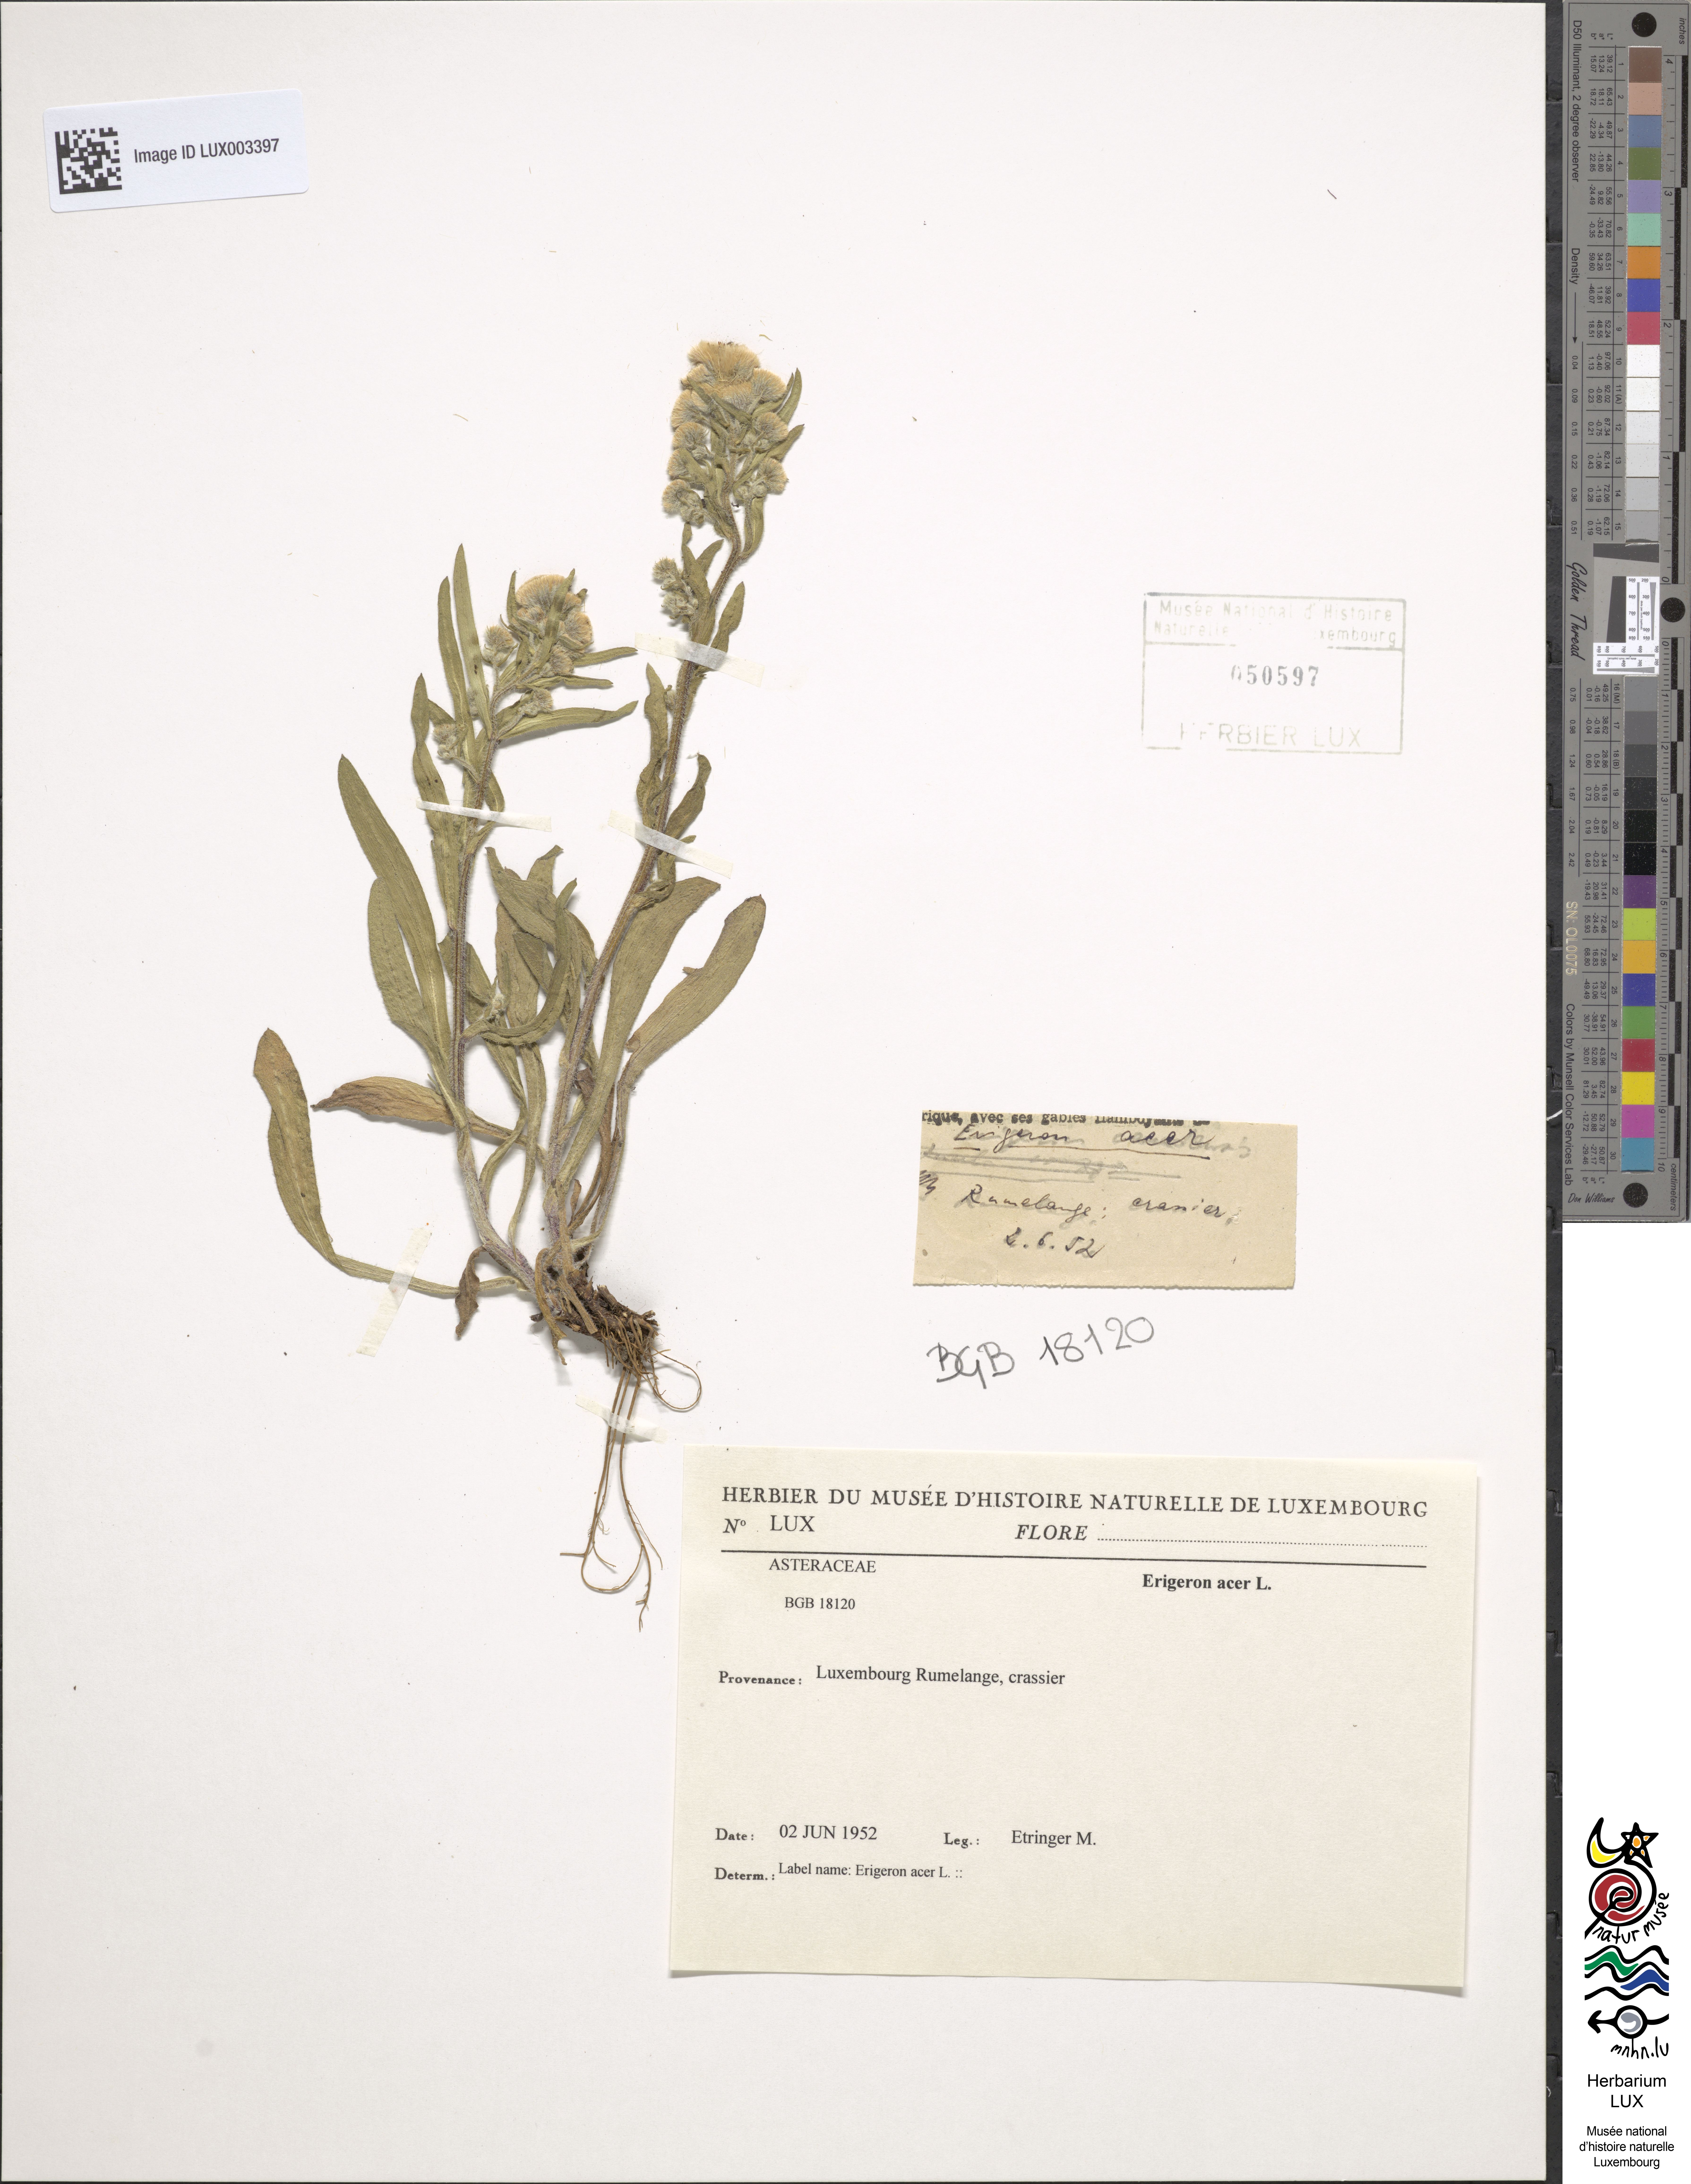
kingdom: Plantae
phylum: Tracheophyta
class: Magnoliopsida
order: Asterales
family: Asteraceae
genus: Erigeron
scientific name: Erigeron acer
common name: Blue fleabane
